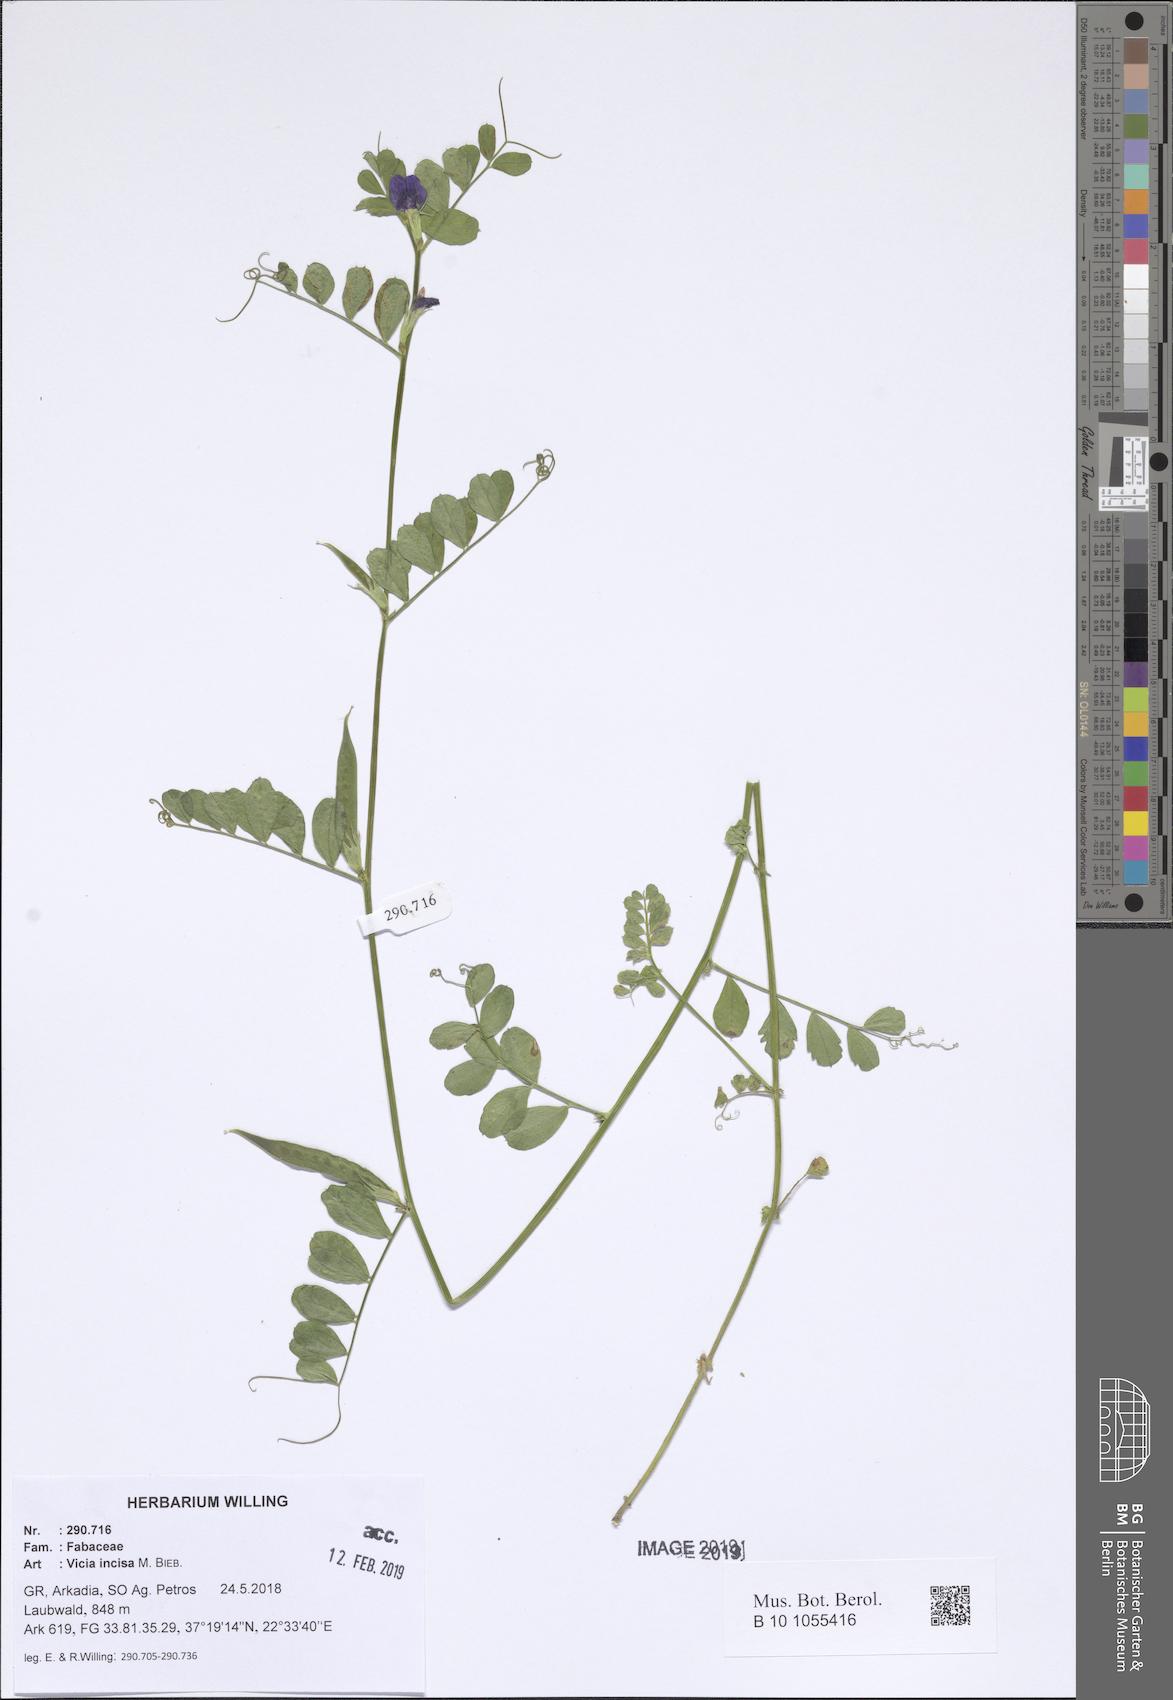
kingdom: Plantae
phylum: Tracheophyta
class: Magnoliopsida
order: Fabales
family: Fabaceae
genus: Vicia
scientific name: Vicia sativa
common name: Garden vetch
